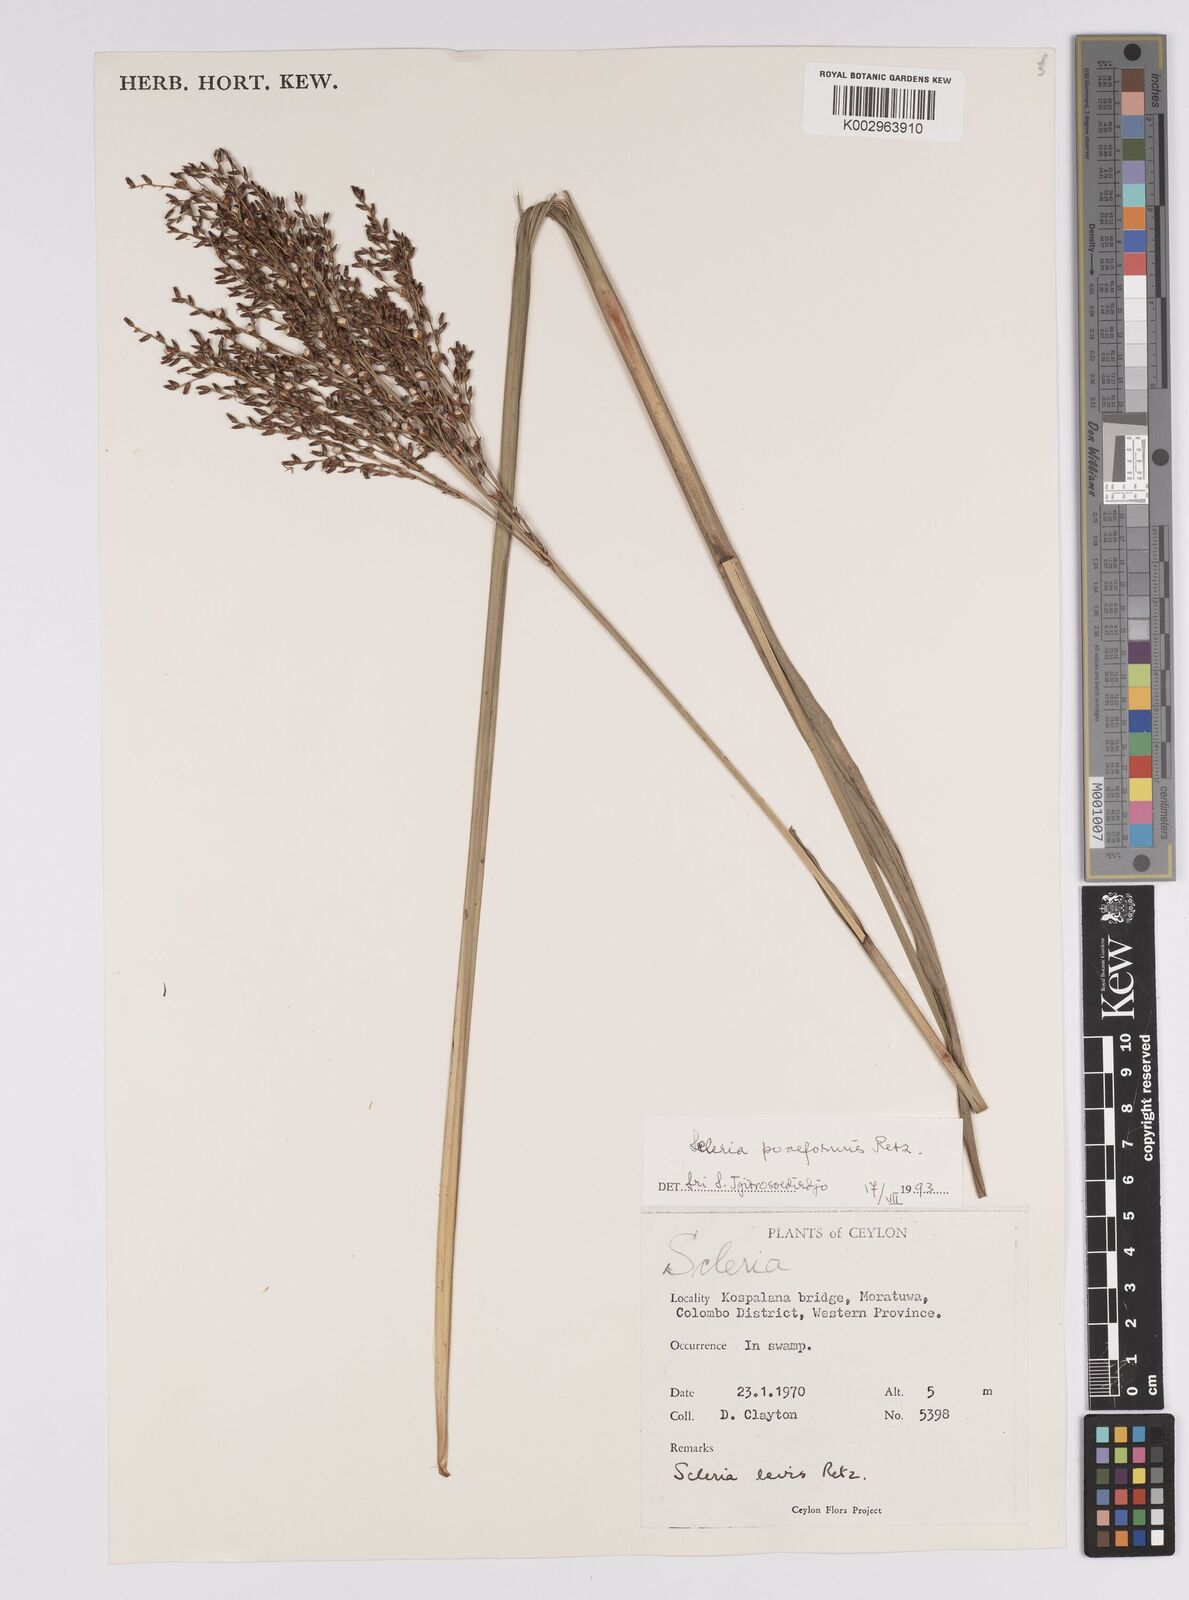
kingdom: Plantae
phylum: Tracheophyta
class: Liliopsida
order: Poales
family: Cyperaceae
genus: Scleria
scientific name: Scleria levis
